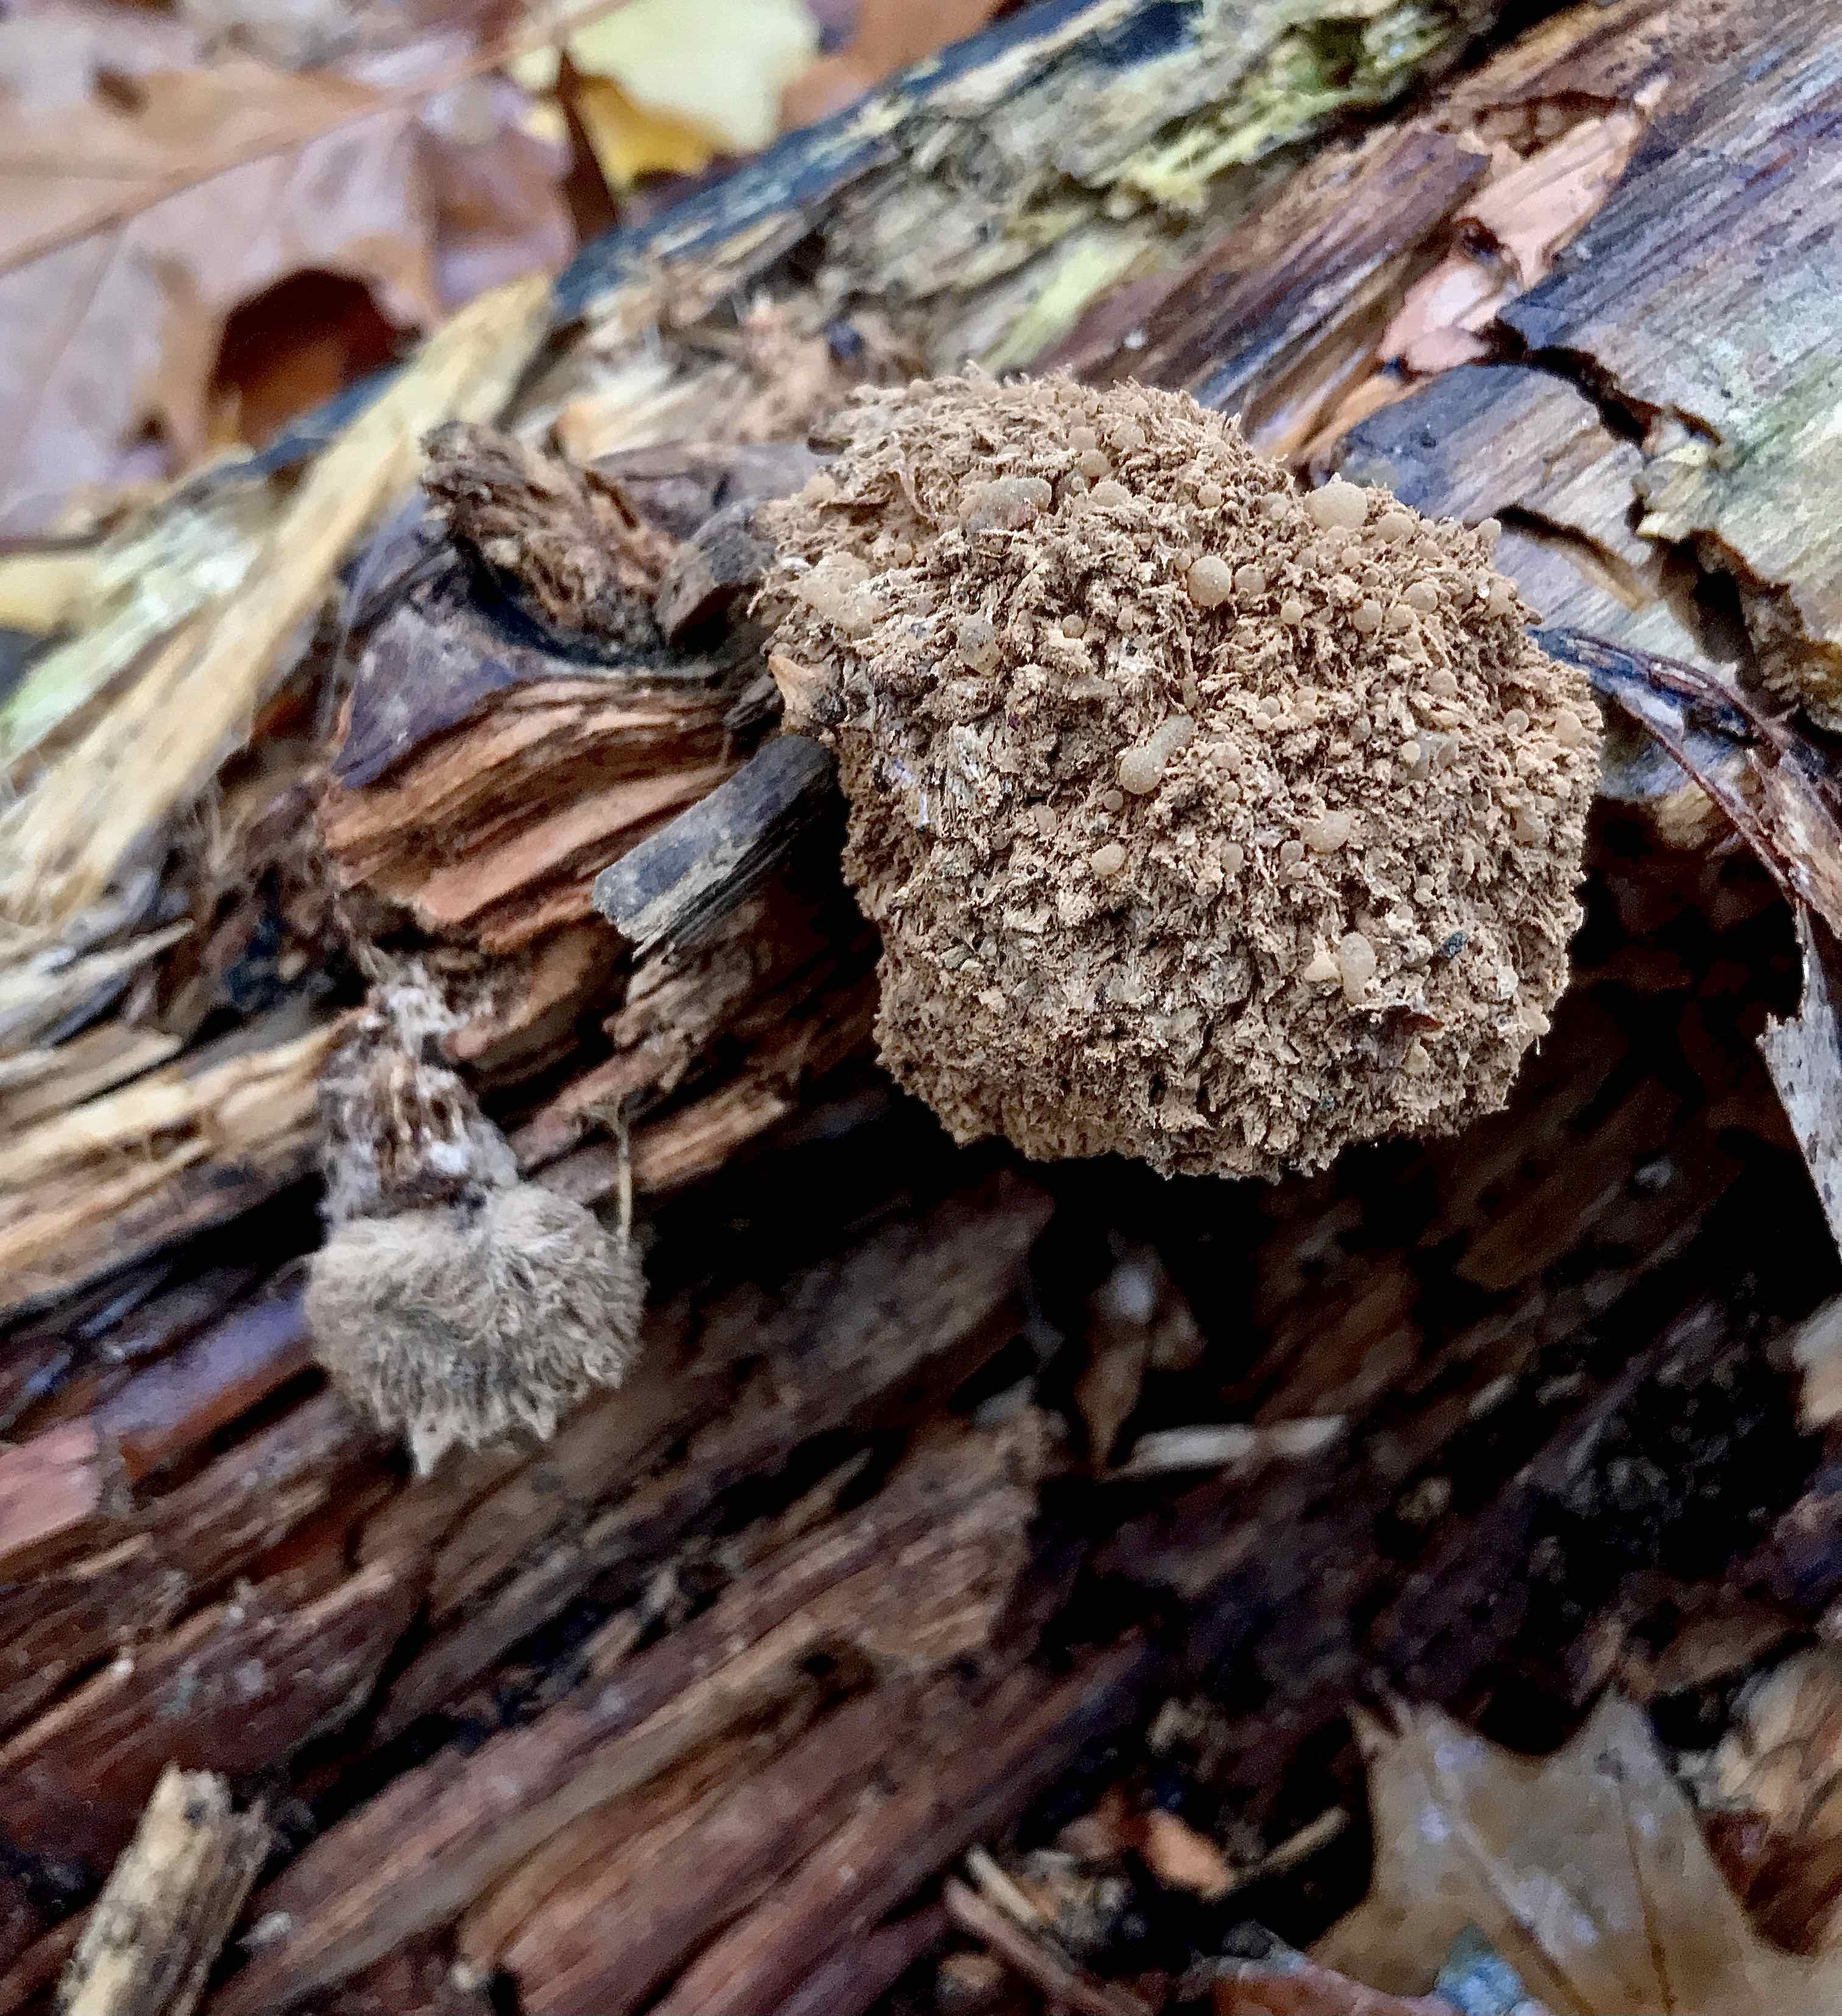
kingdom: Fungi
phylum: Basidiomycota
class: Agaricomycetes
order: Polyporales
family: Dacryobolaceae
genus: Postia
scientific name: Postia ptychogaster
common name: støvende kødporesvamp
